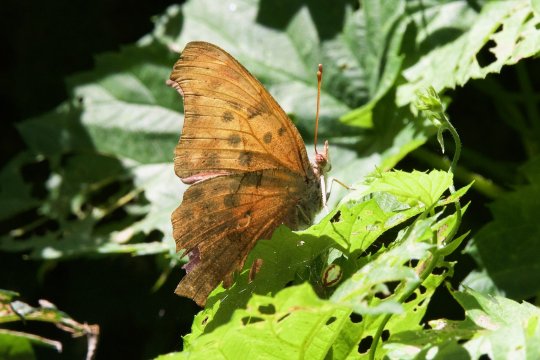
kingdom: Animalia
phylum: Arthropoda
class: Insecta
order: Lepidoptera
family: Nymphalidae
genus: Polygonia
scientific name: Polygonia interrogationis
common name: Question Mark
